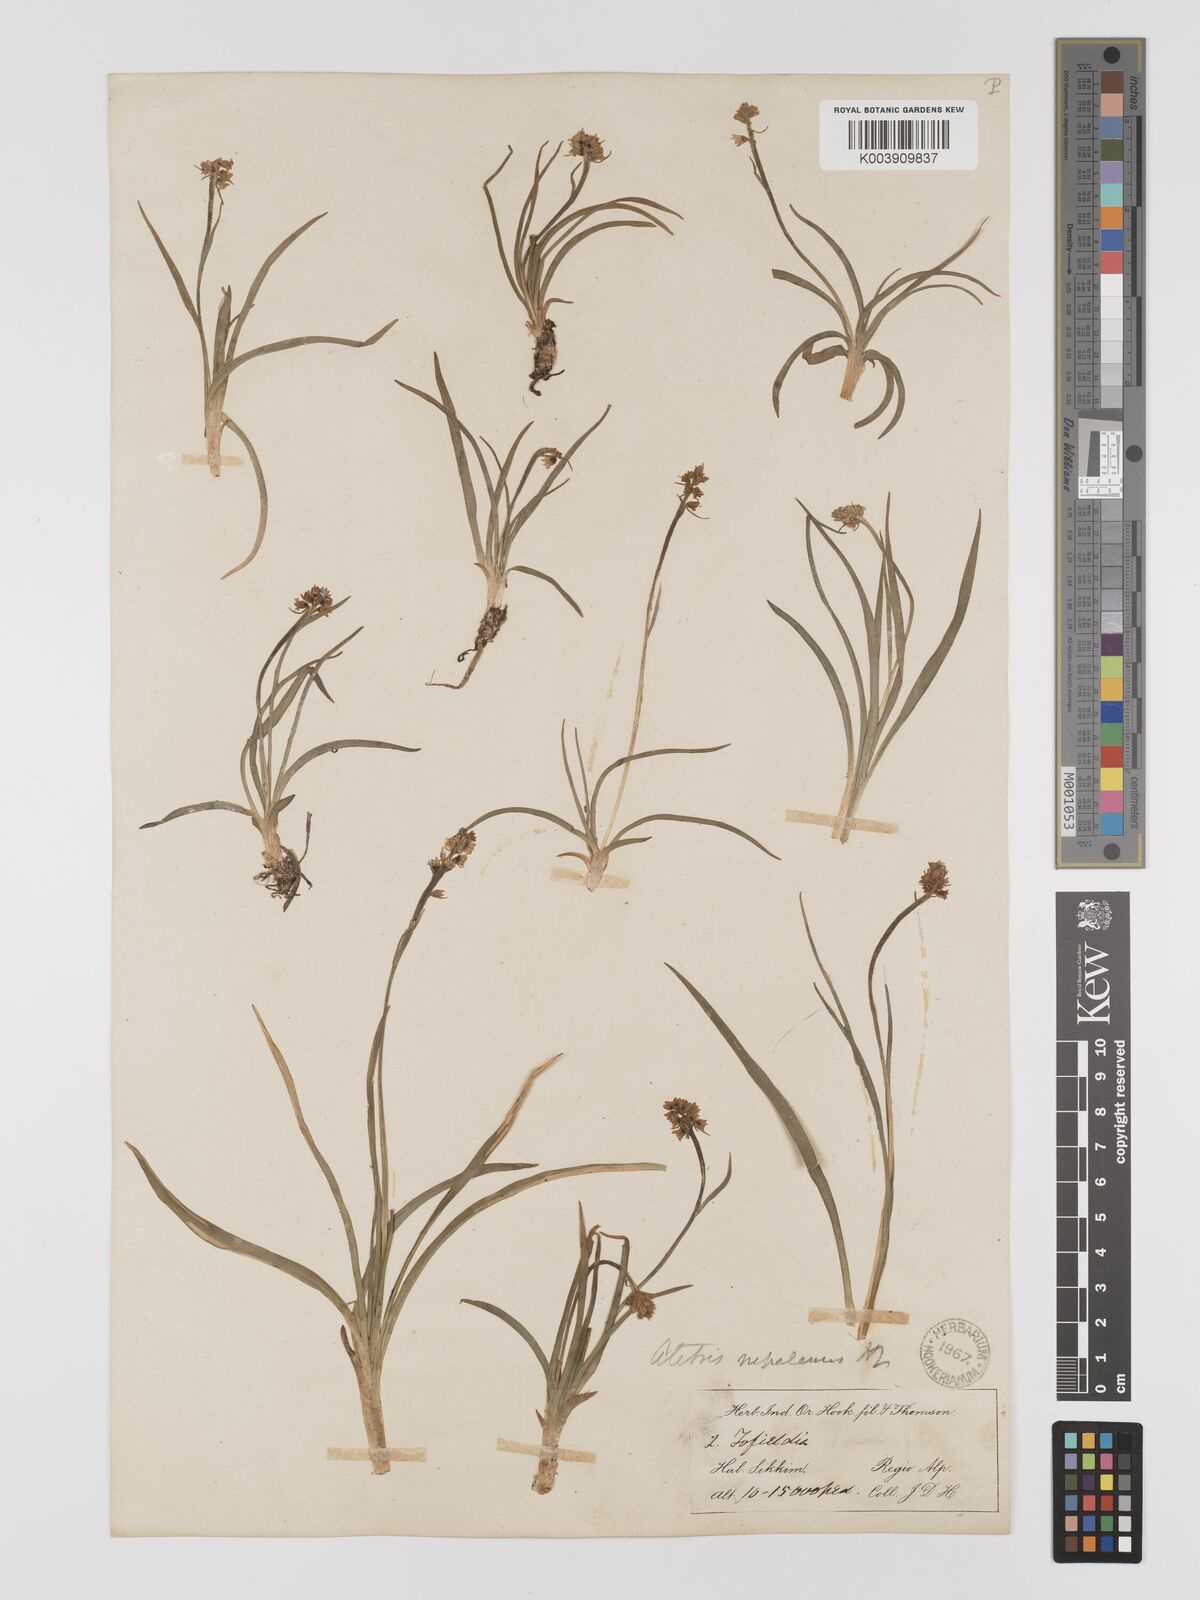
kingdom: Plantae
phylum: Tracheophyta
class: Liliopsida
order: Dioscoreales
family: Nartheciaceae
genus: Aletris
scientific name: Aletris pauciflora
